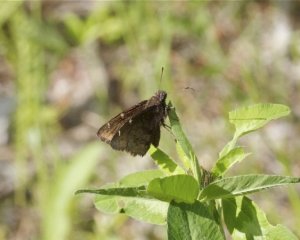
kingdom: Animalia
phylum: Arthropoda
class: Insecta
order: Lepidoptera
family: Hesperiidae
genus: Autochton
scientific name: Autochton
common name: Northern Cloudywing
